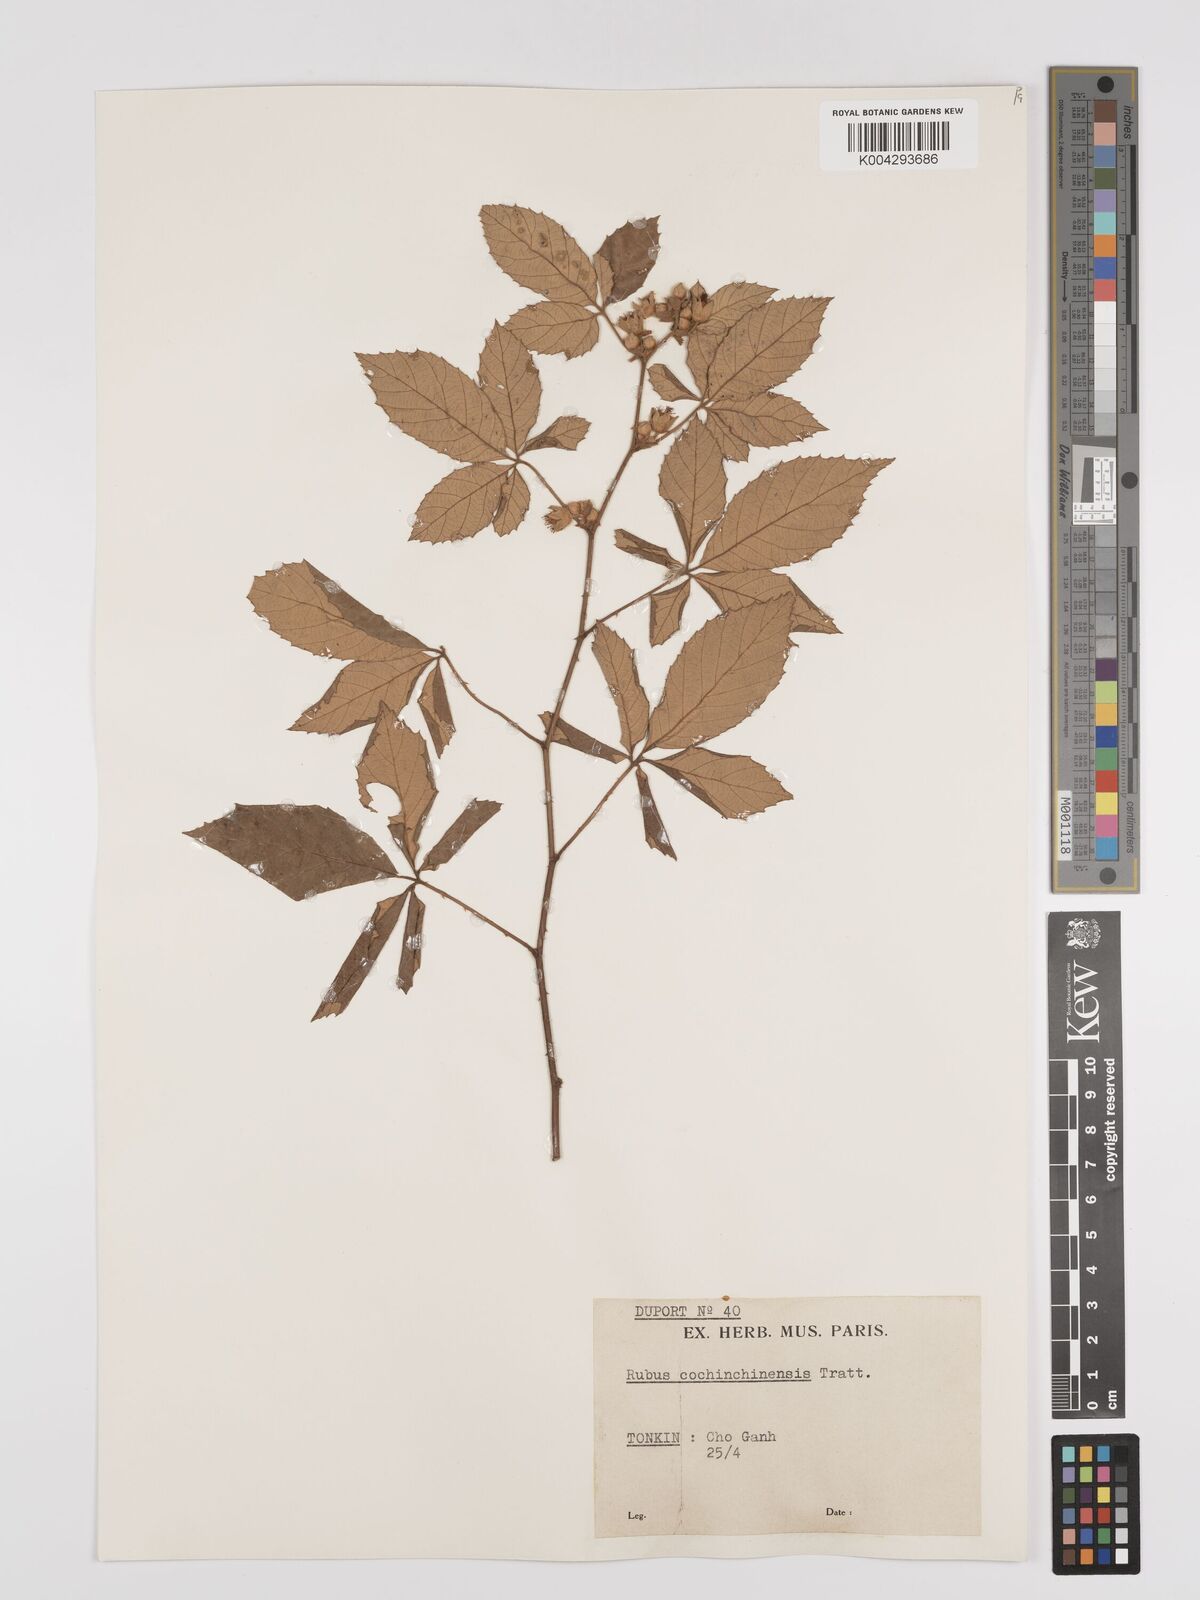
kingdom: Plantae
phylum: Tracheophyta
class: Magnoliopsida
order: Rosales
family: Rosaceae
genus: Rubus
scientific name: Rubus cochinchinensis
